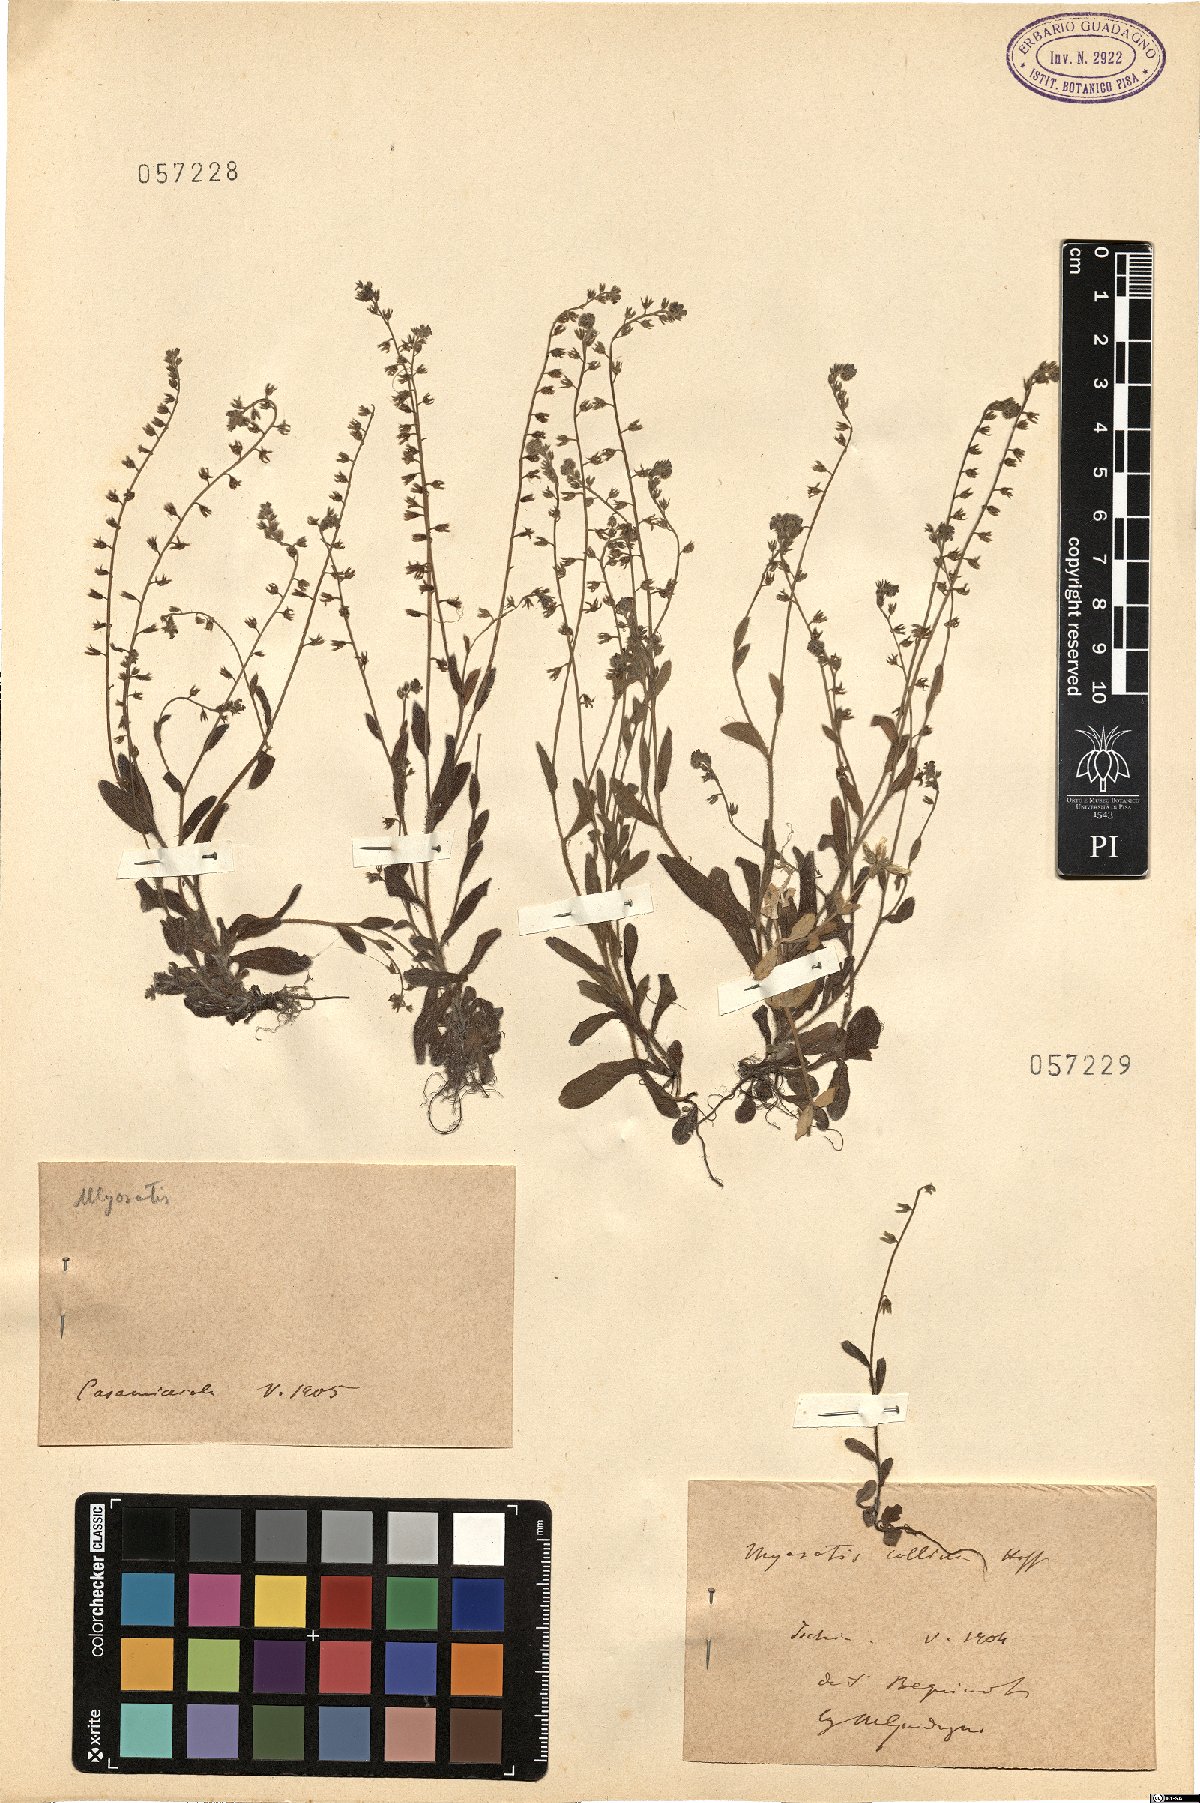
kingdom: Plantae
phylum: Tracheophyta
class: Magnoliopsida
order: Boraginales
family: Boraginaceae
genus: Myosotis
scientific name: Myosotis discolor
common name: Changing forget-me-not
